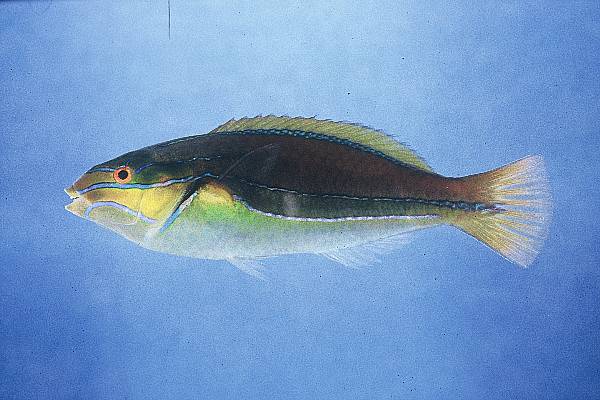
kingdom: Animalia
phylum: Chordata
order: Perciformes
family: Labridae
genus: Stethojulis
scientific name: Stethojulis albovittata
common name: Bluelined wrasse
